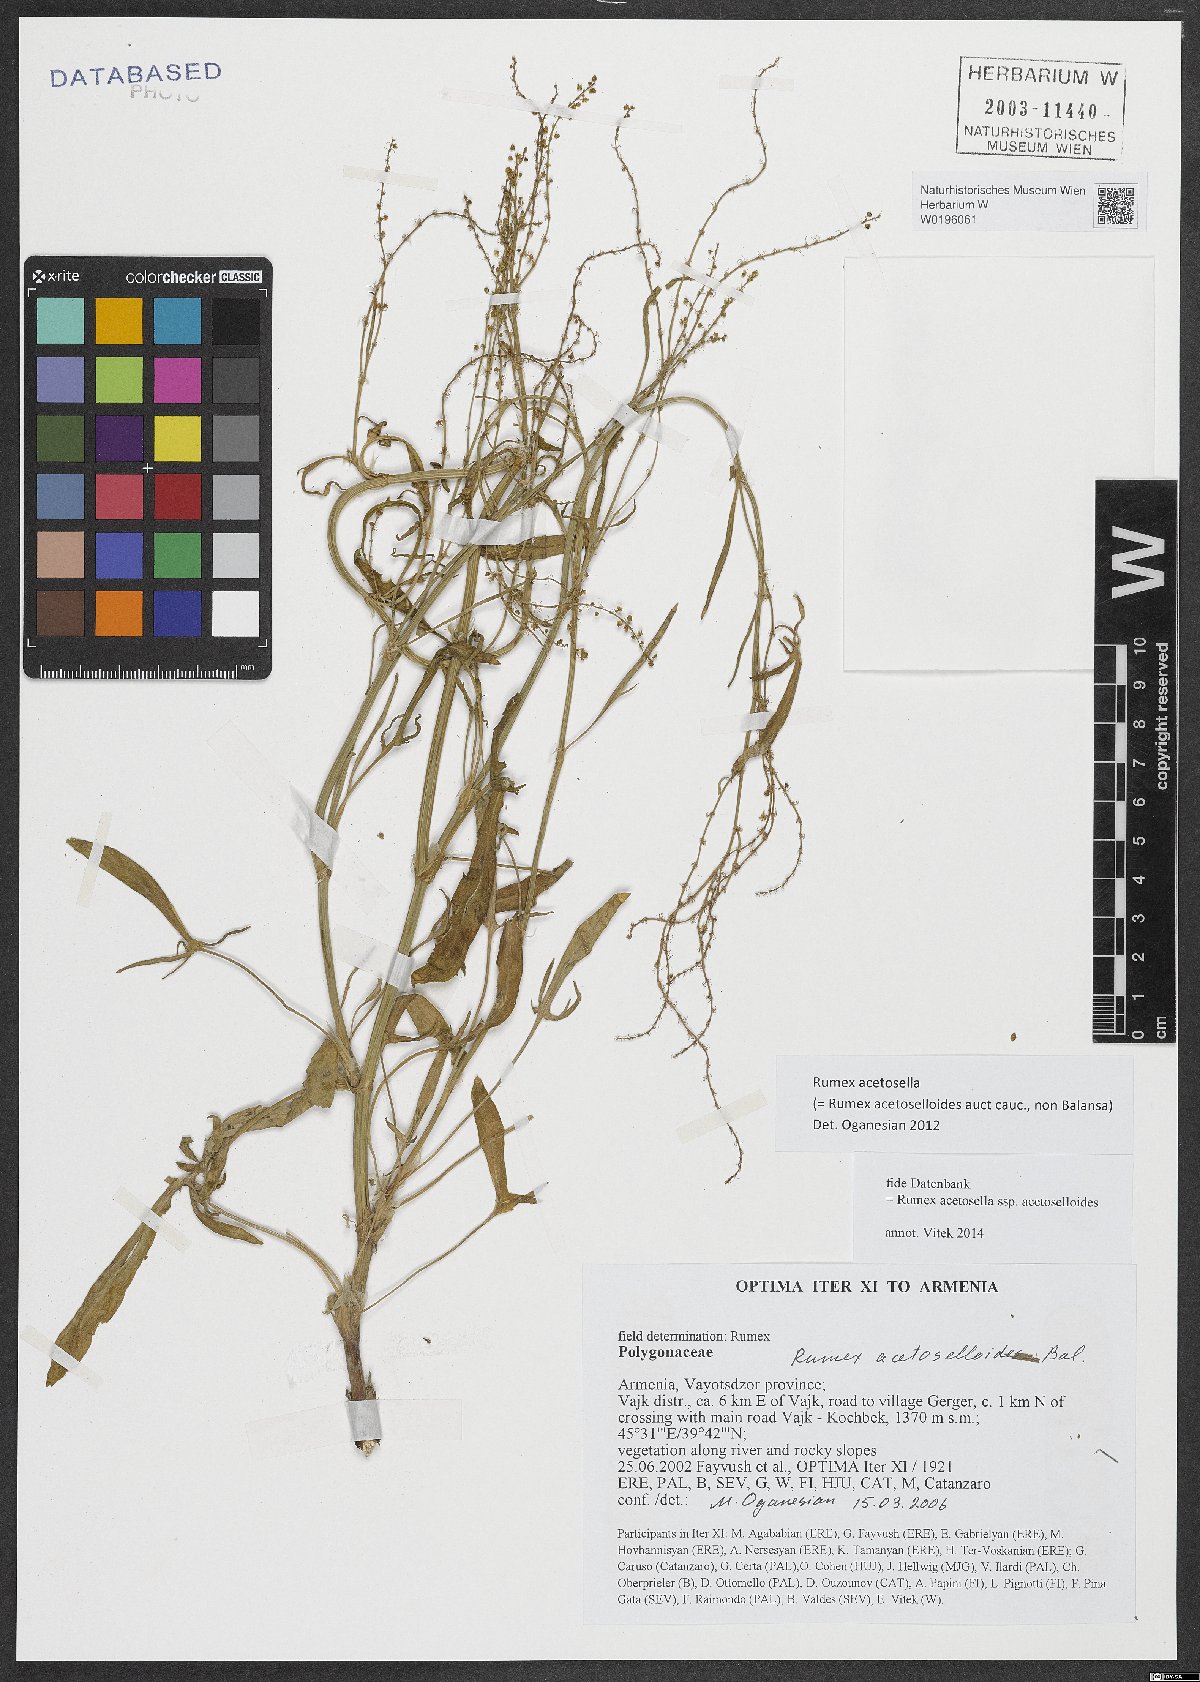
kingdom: Plantae
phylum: Tracheophyta
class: Magnoliopsida
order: Caryophyllales
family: Polygonaceae
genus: Rumex
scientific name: Rumex acetosella
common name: Common sheep sorrel
